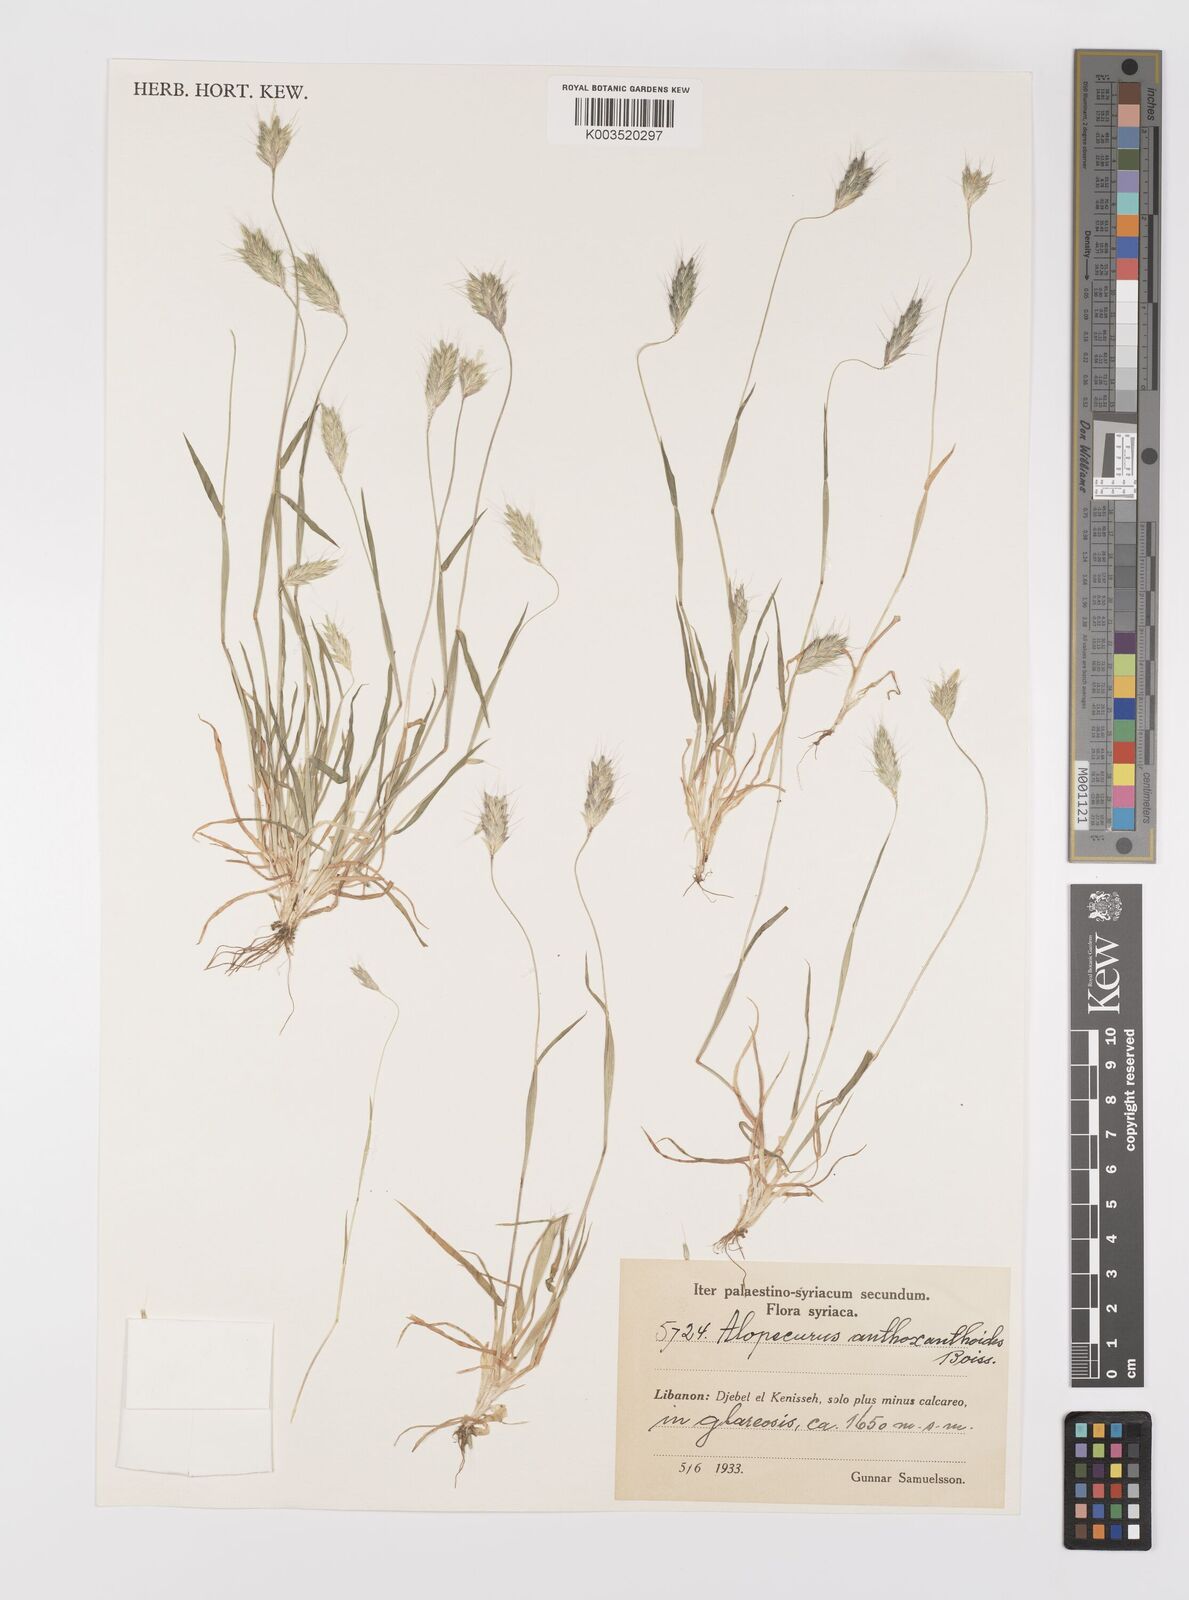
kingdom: Plantae
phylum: Tracheophyta
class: Liliopsida
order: Poales
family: Poaceae
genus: Alopecurus
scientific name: Alopecurus utriculatus
